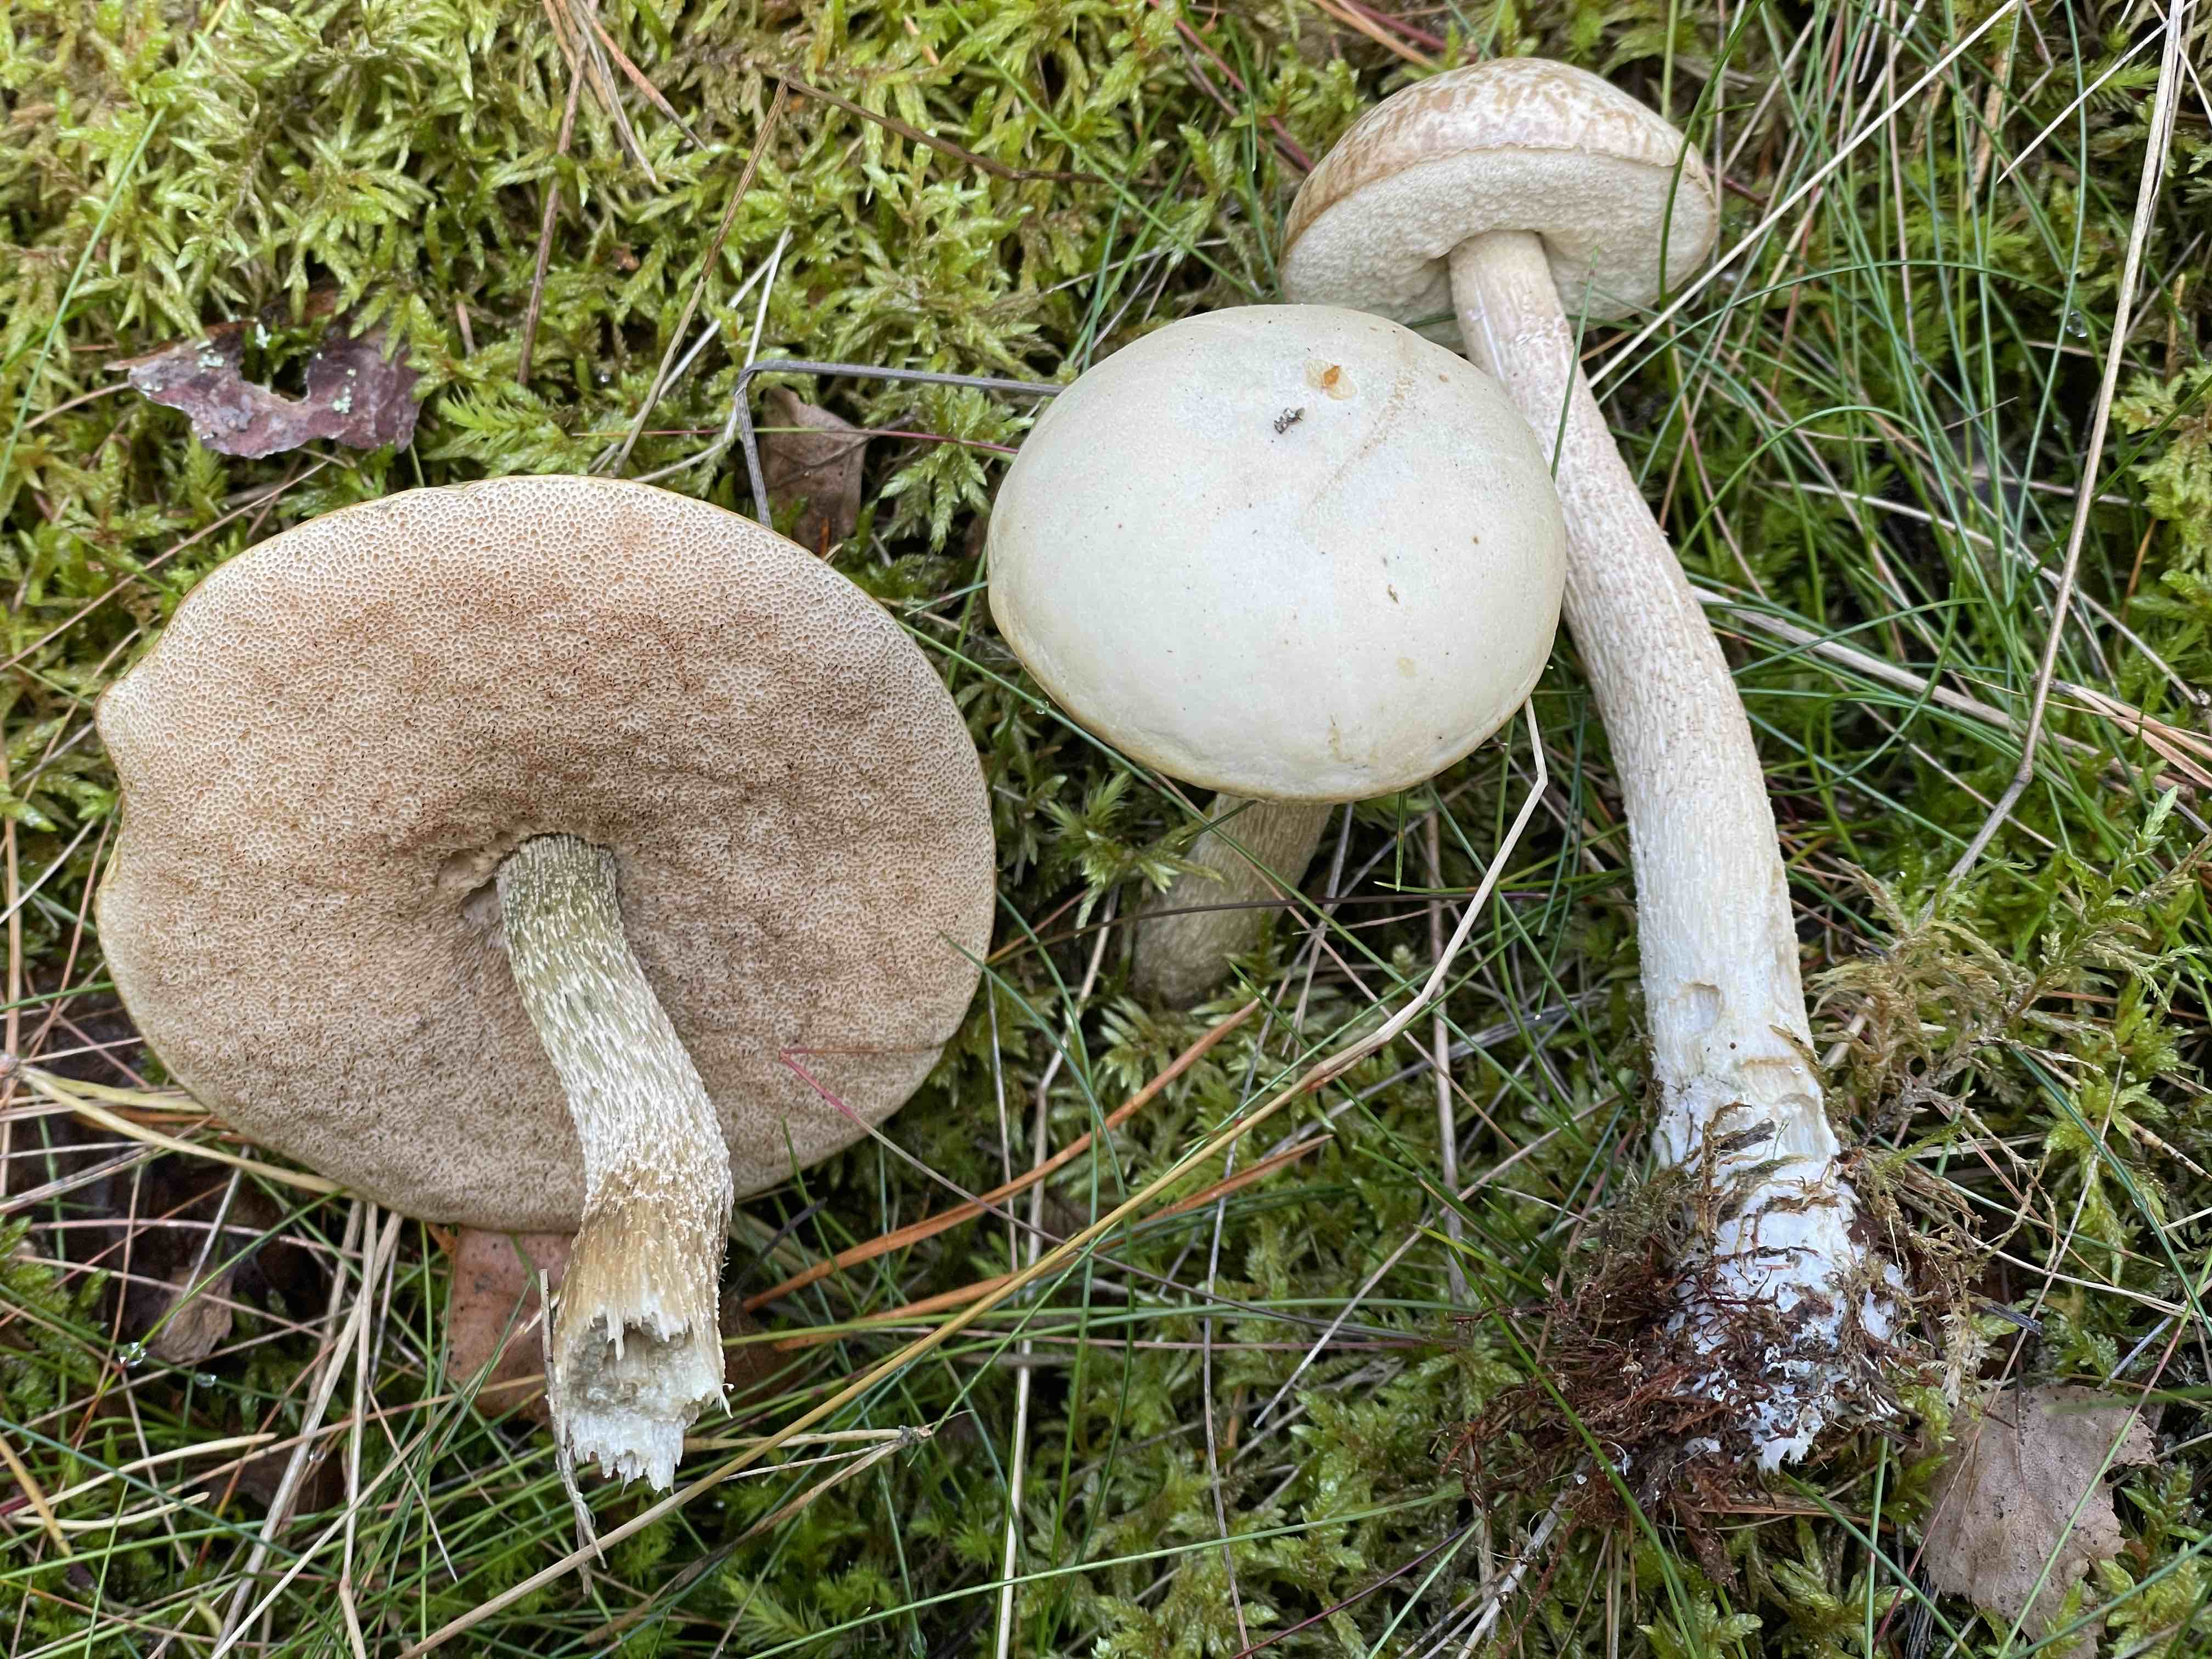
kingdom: Fungi
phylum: Basidiomycota
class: Agaricomycetes
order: Boletales
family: Boletaceae
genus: Leccinum
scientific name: Leccinum scabrum
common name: hvid skælrørhat
